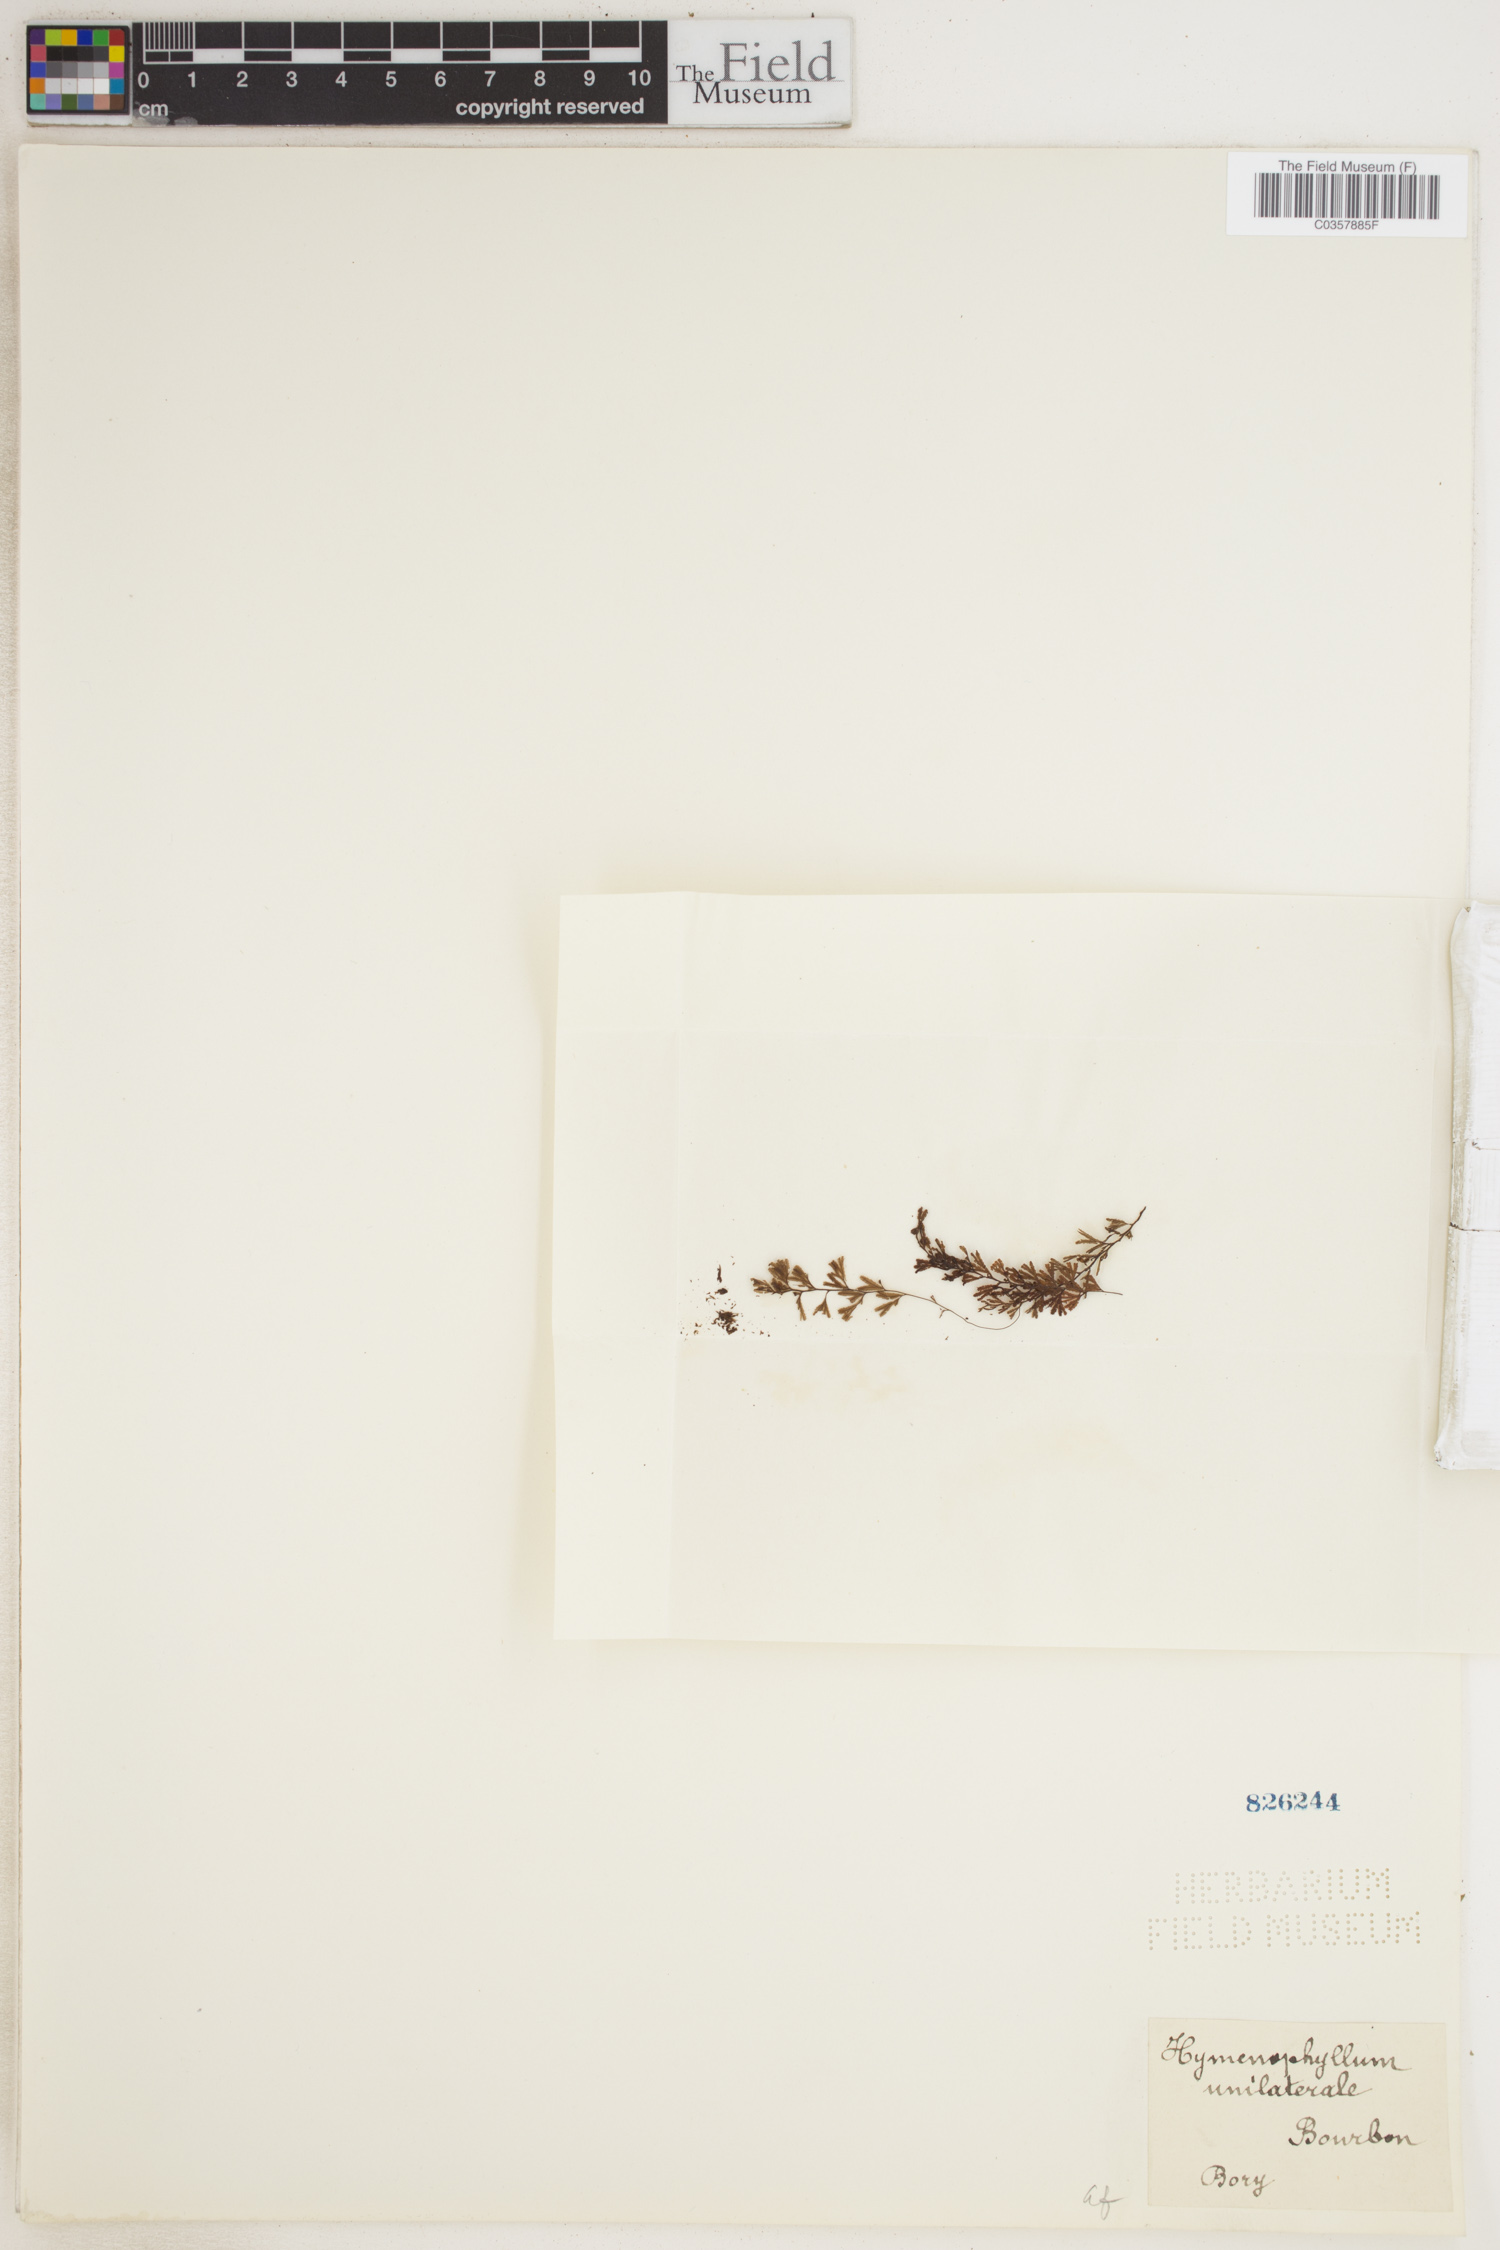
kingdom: Plantae
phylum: Tracheophyta
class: Polypodiopsida
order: Hymenophyllales
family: Hymenophyllaceae
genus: Hymenophyllum
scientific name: Hymenophyllum peltatum
